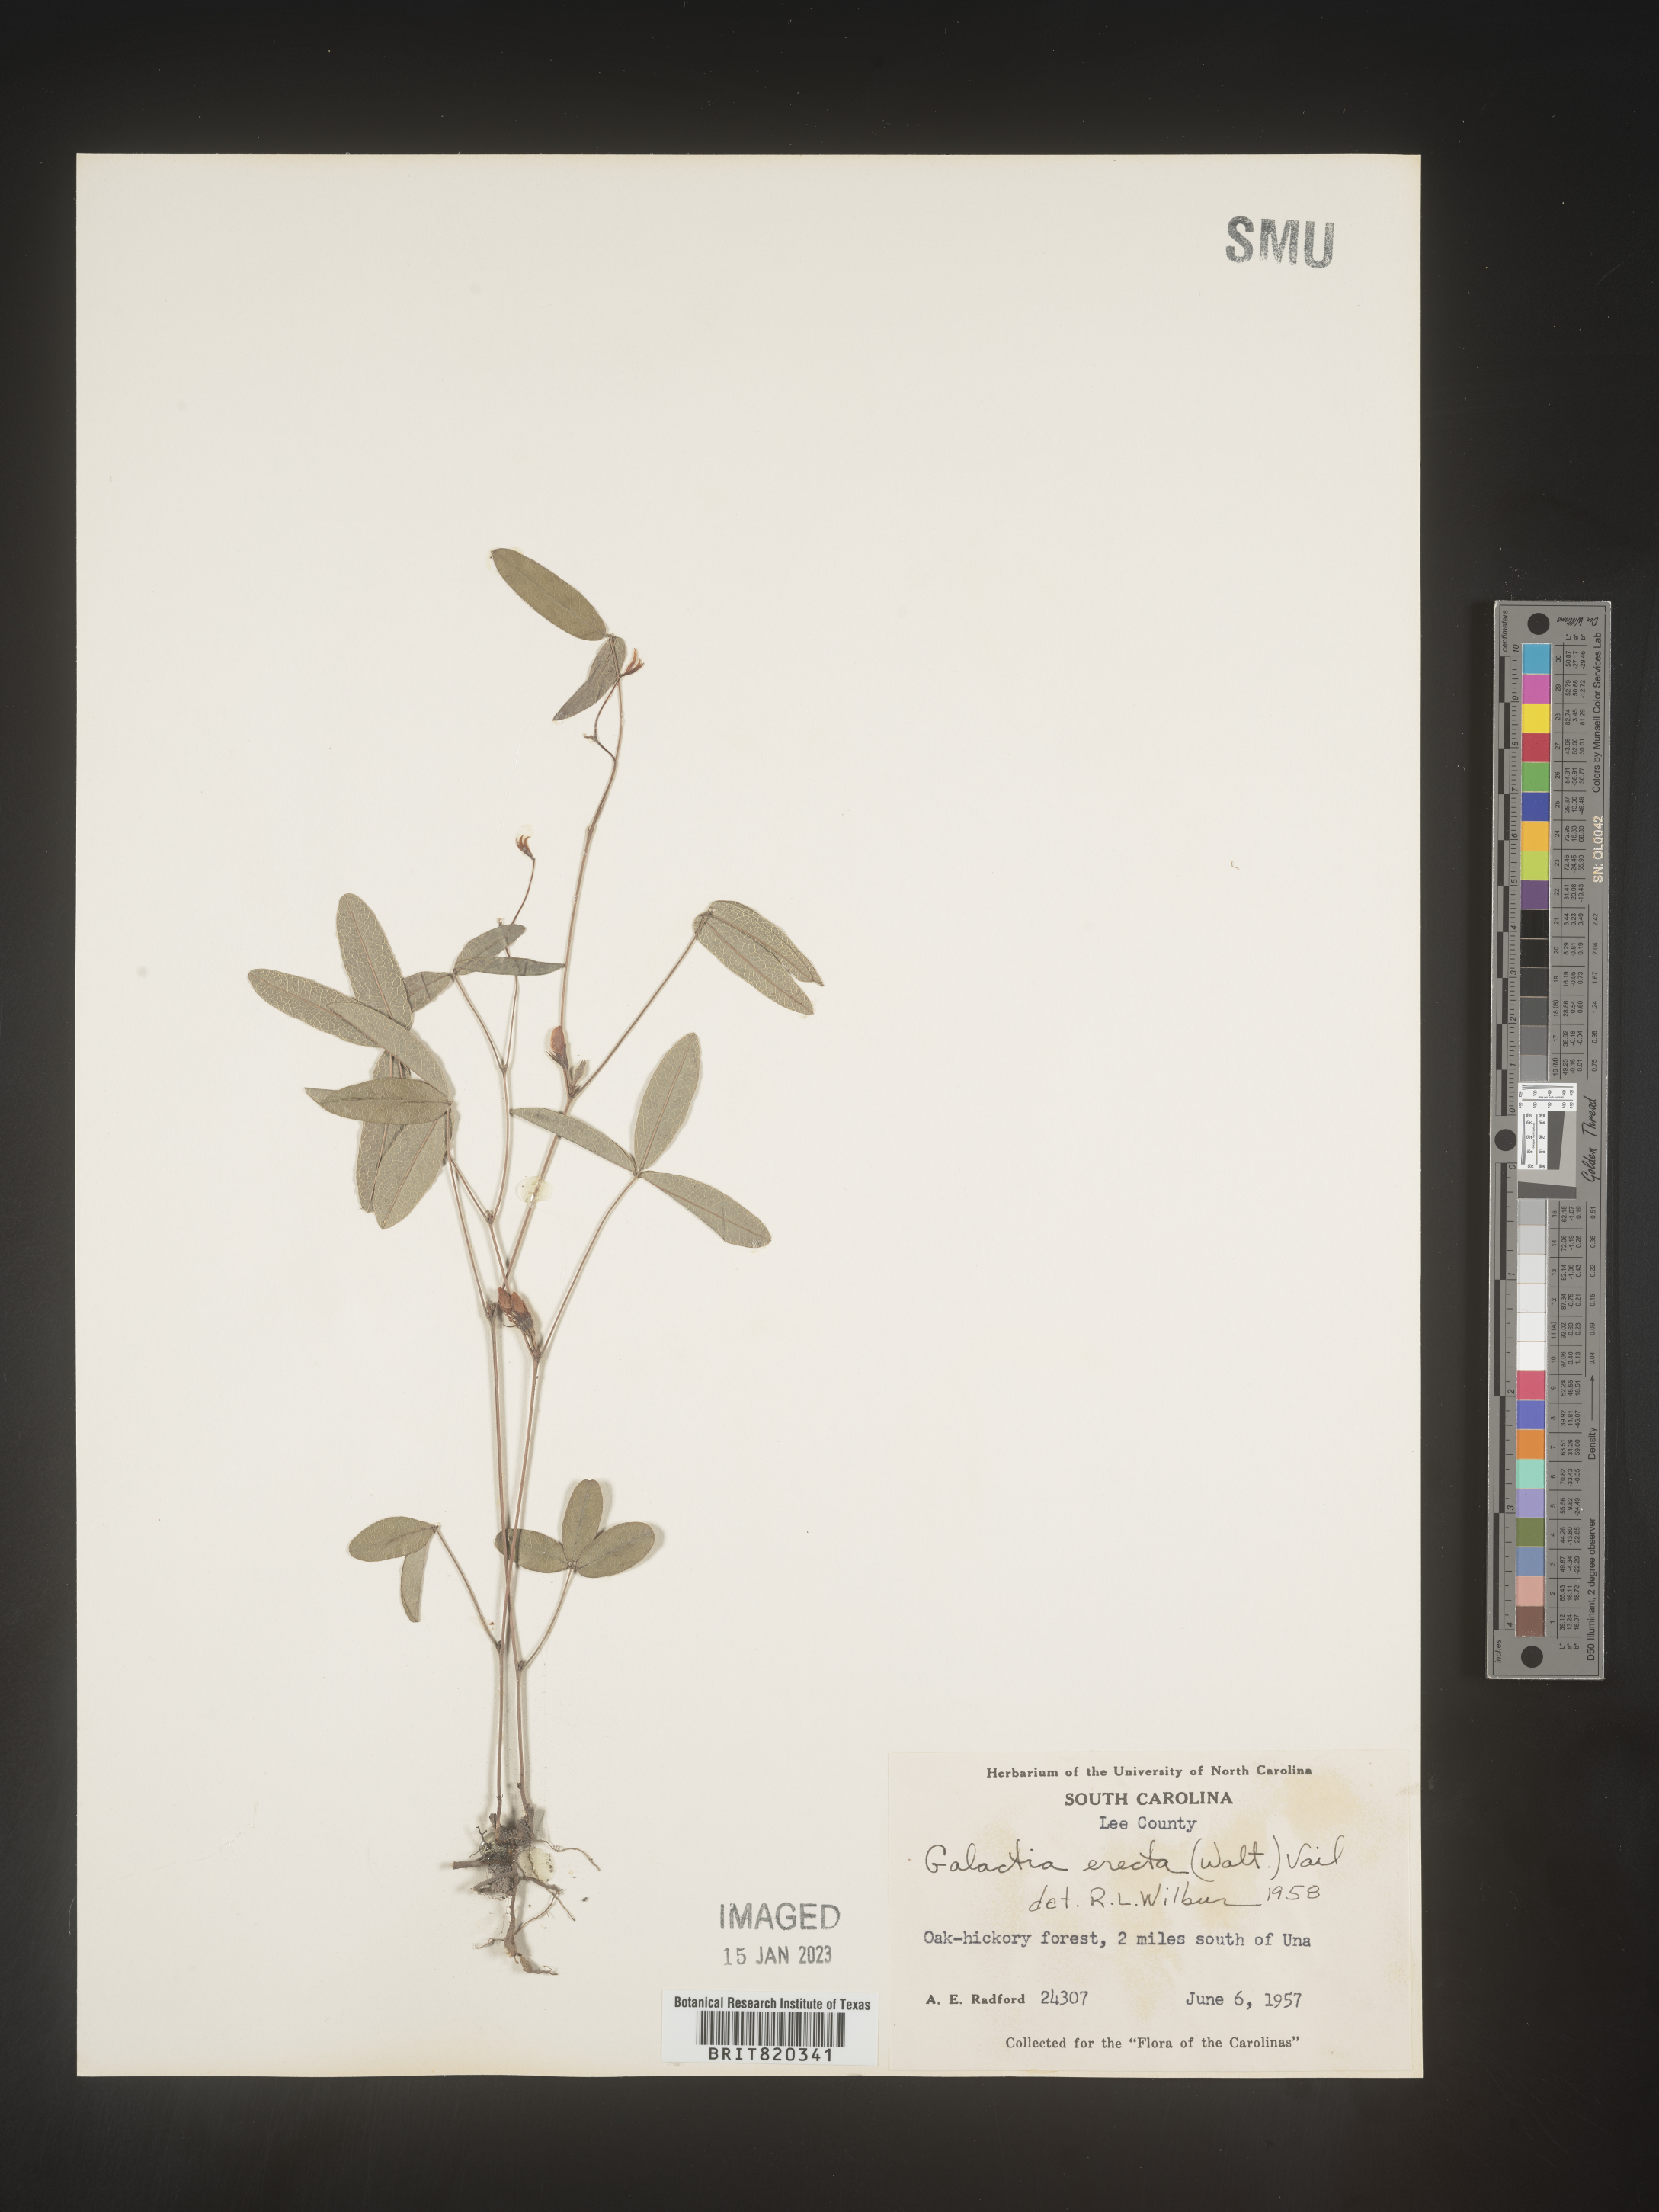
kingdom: Plantae
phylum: Tracheophyta
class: Magnoliopsida
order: Fabales
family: Fabaceae
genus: Galactia
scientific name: Galactia erecta
